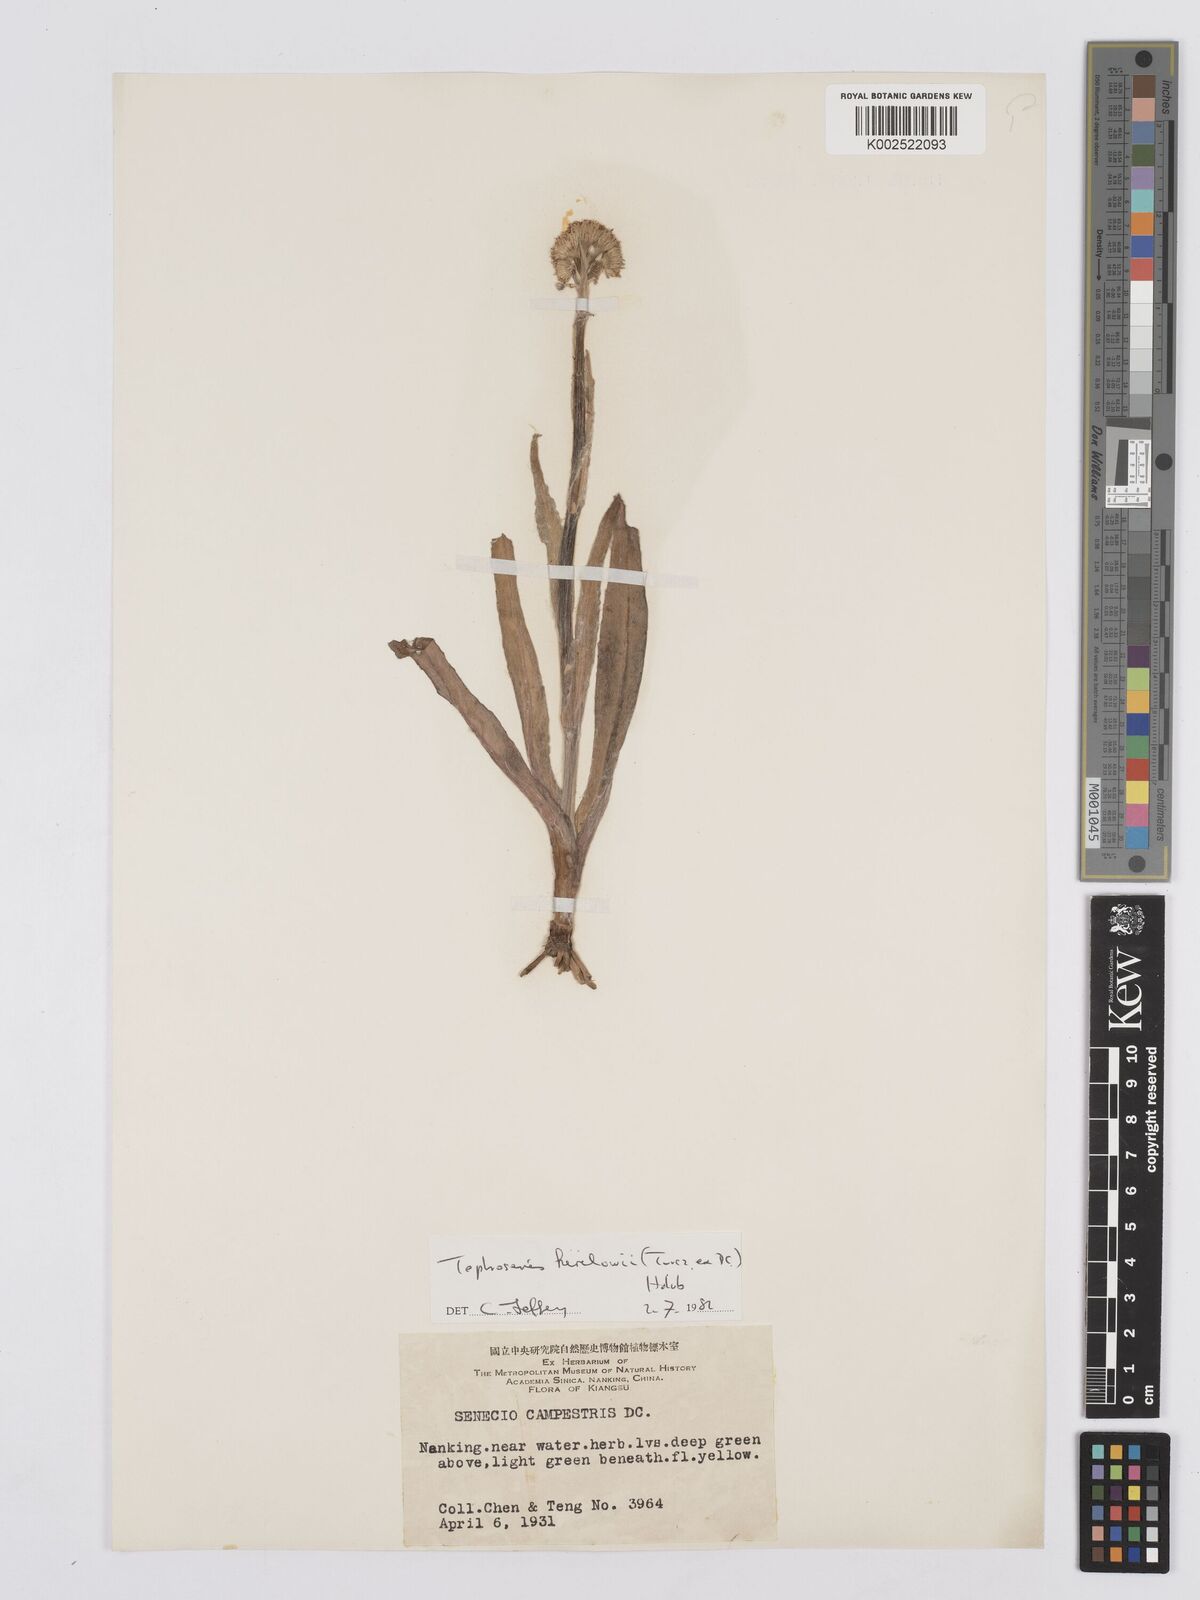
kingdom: Plantae
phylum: Tracheophyta
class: Magnoliopsida
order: Asterales
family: Asteraceae
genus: Tephroseris
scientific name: Tephroseris kirilowii
